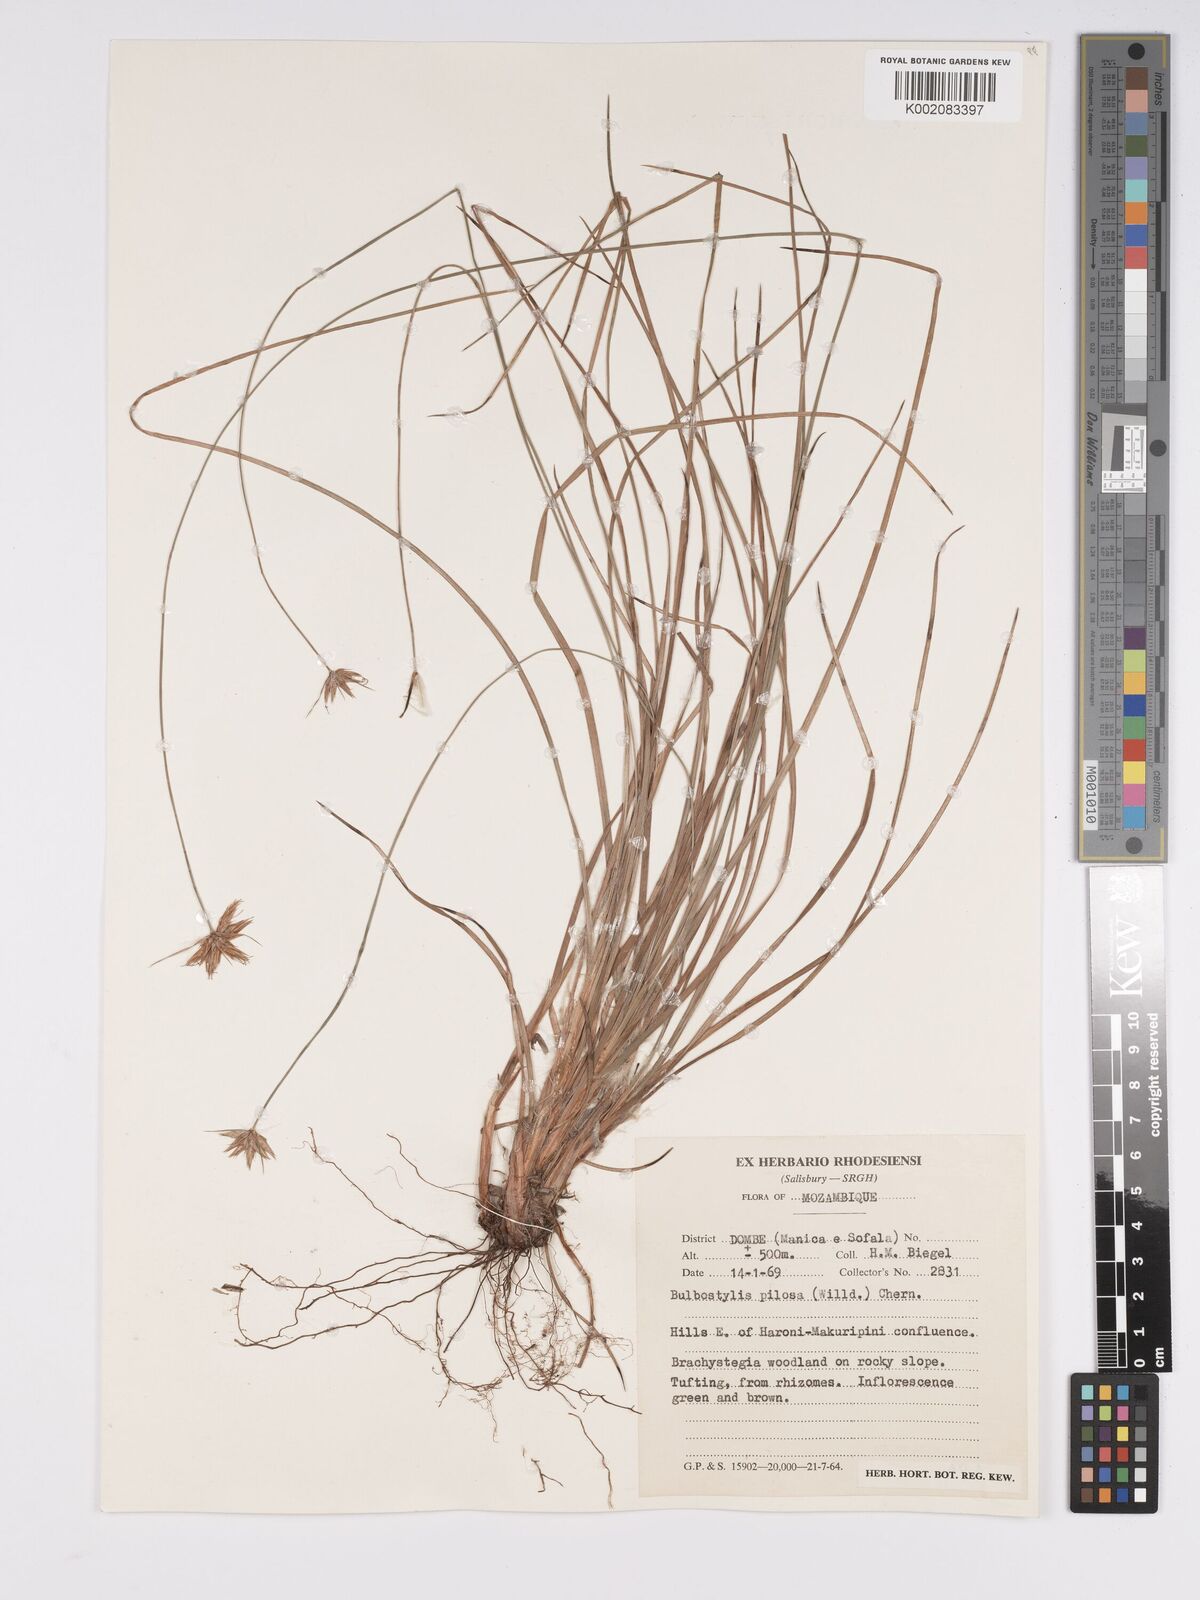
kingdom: Plantae
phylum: Tracheophyta
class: Liliopsida
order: Poales
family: Cyperaceae
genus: Bulbostylis
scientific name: Bulbostylis pilosa
